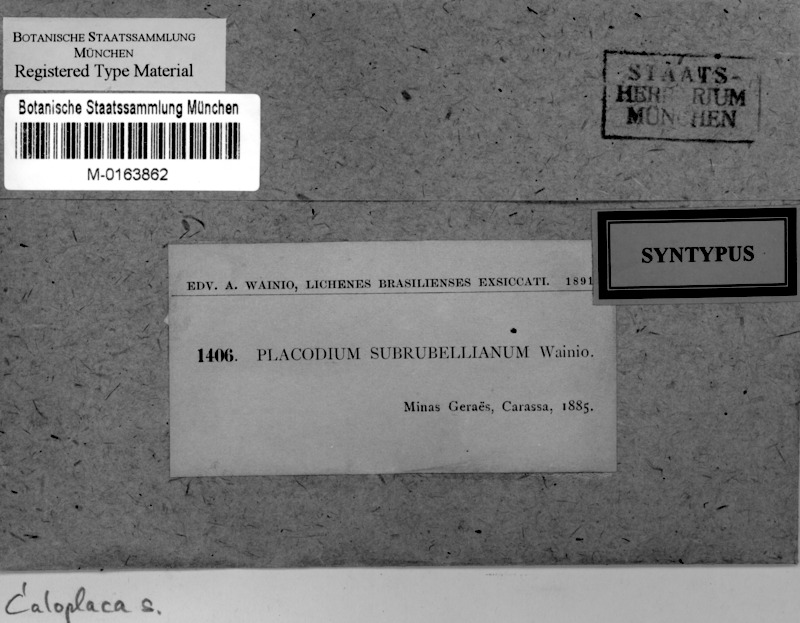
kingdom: Fungi
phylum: Ascomycota
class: Lecanoromycetes
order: Teloschistales
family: Teloschistaceae
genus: Caloplaca
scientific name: Caloplaca subrubelliana
